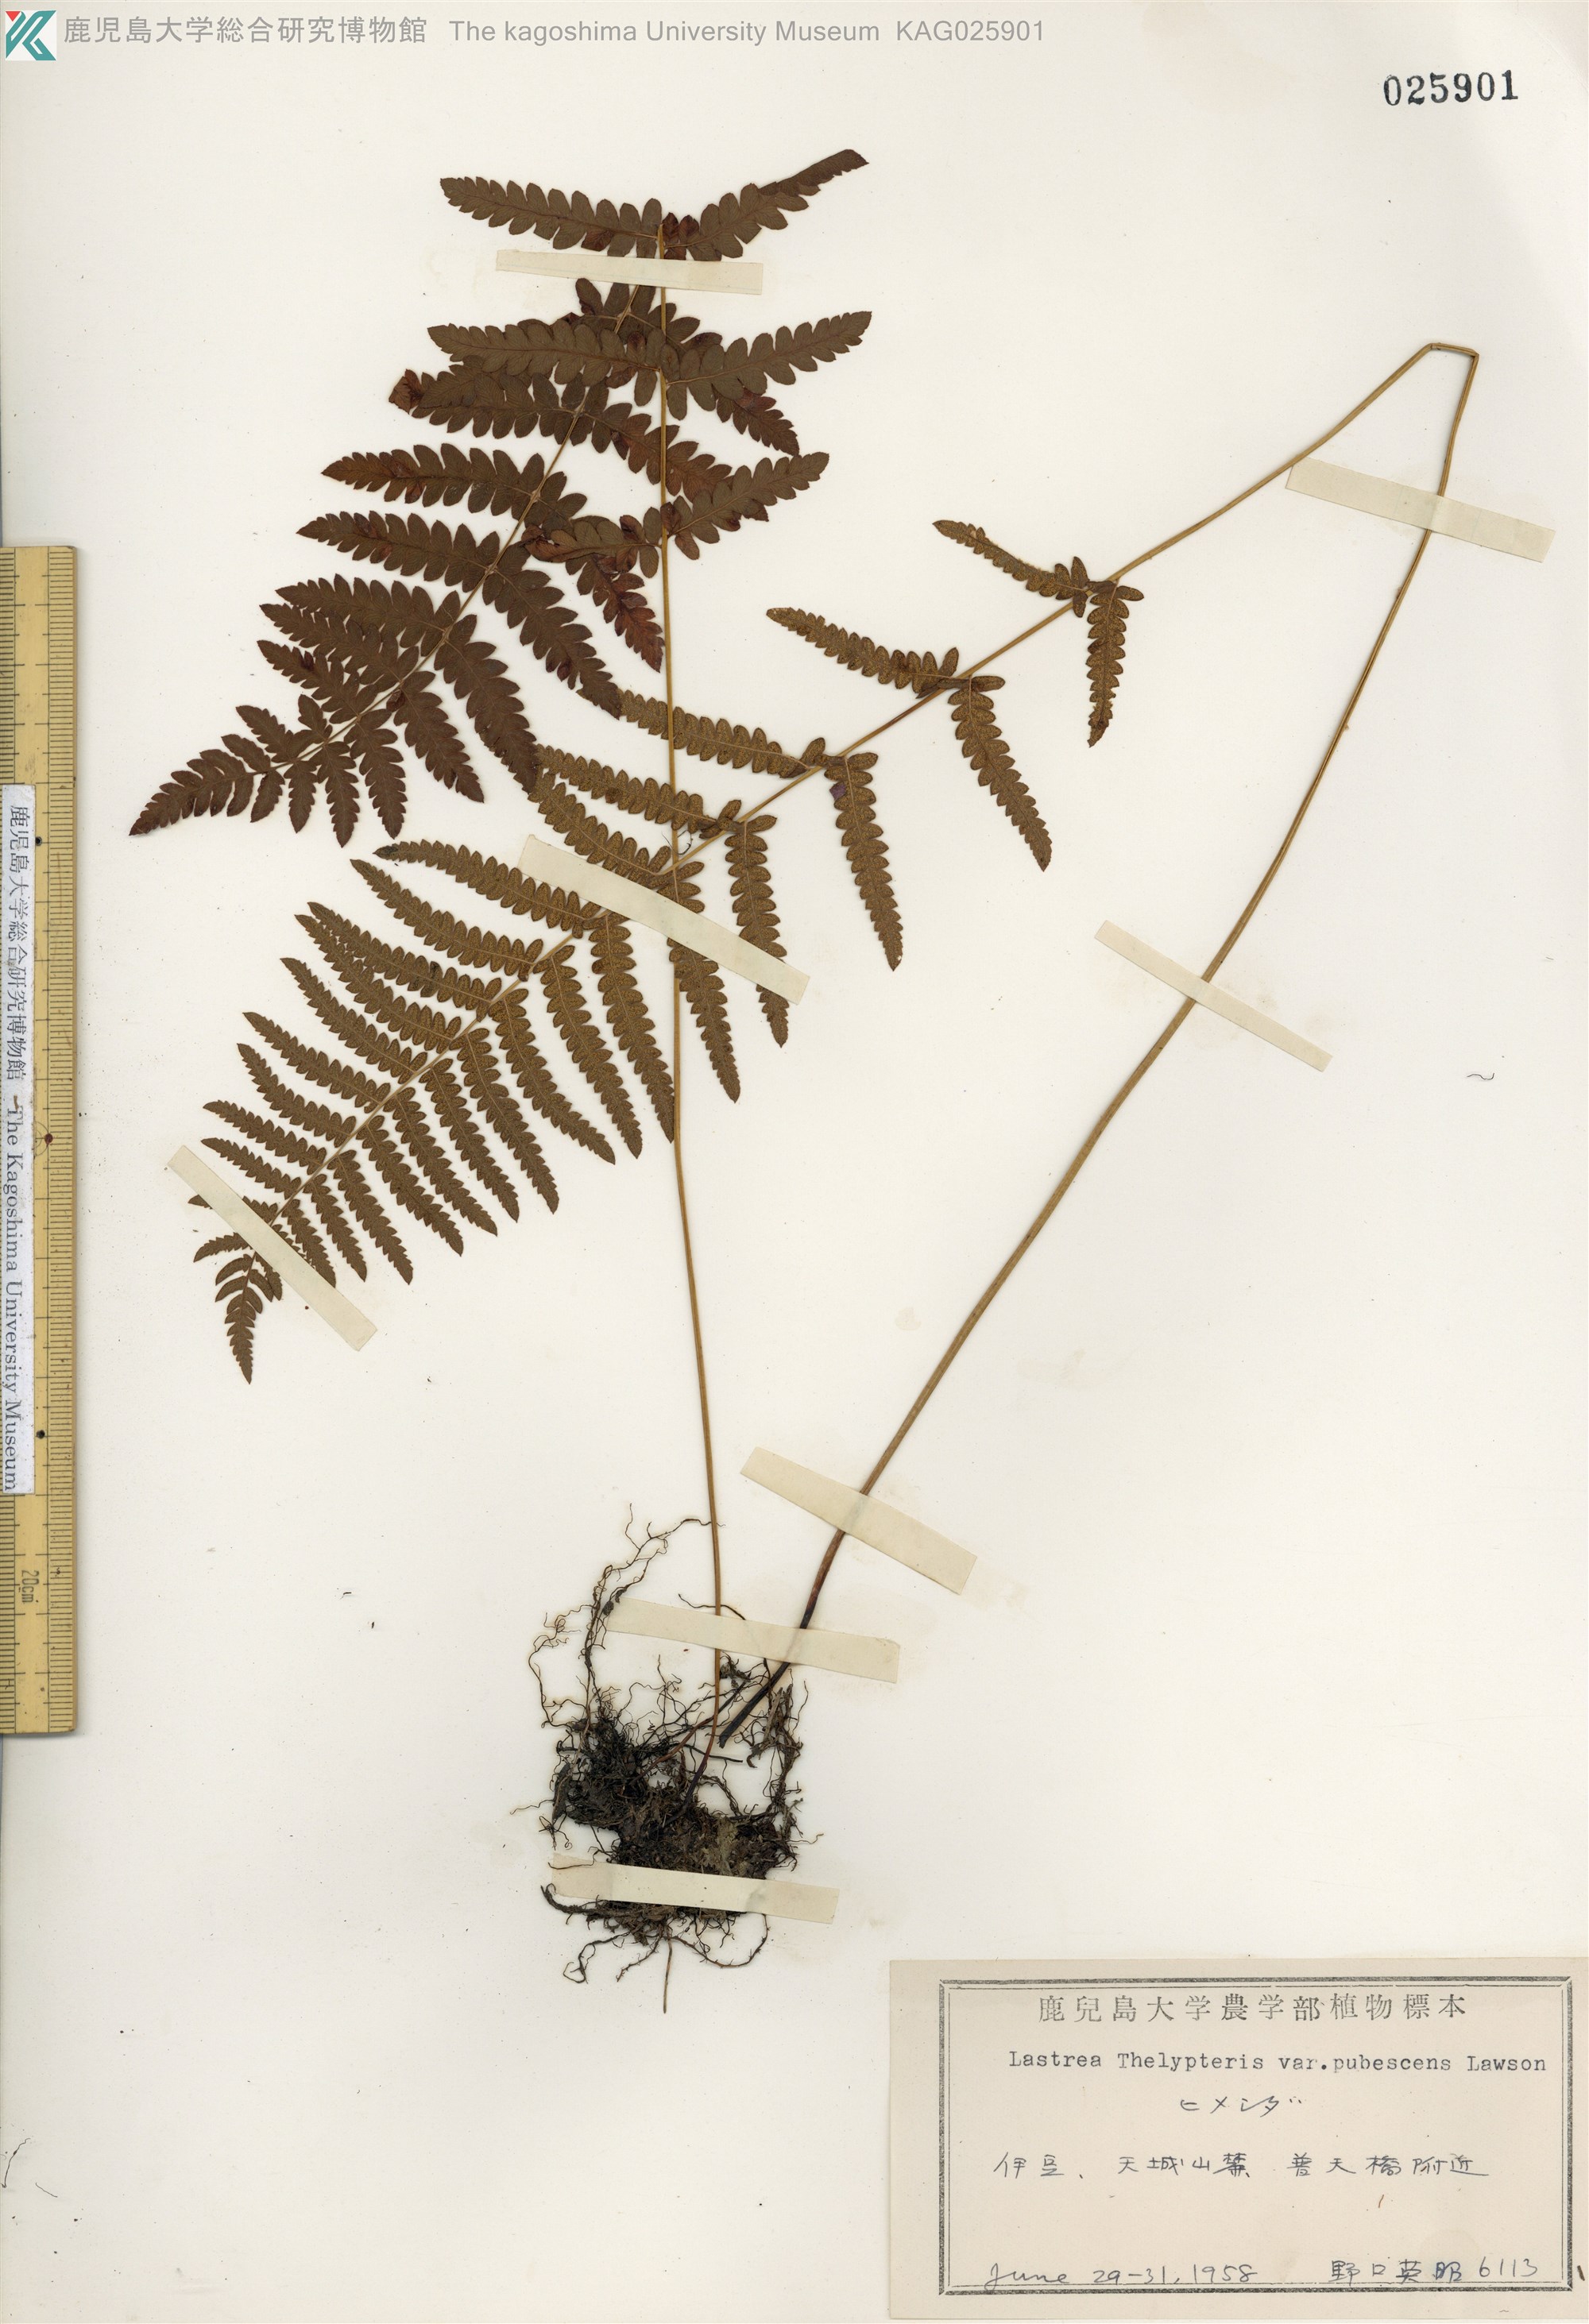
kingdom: Plantae
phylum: Tracheophyta
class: Polypodiopsida
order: Polypodiales
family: Thelypteridaceae
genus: Thelypteris
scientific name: Thelypteris palustris
